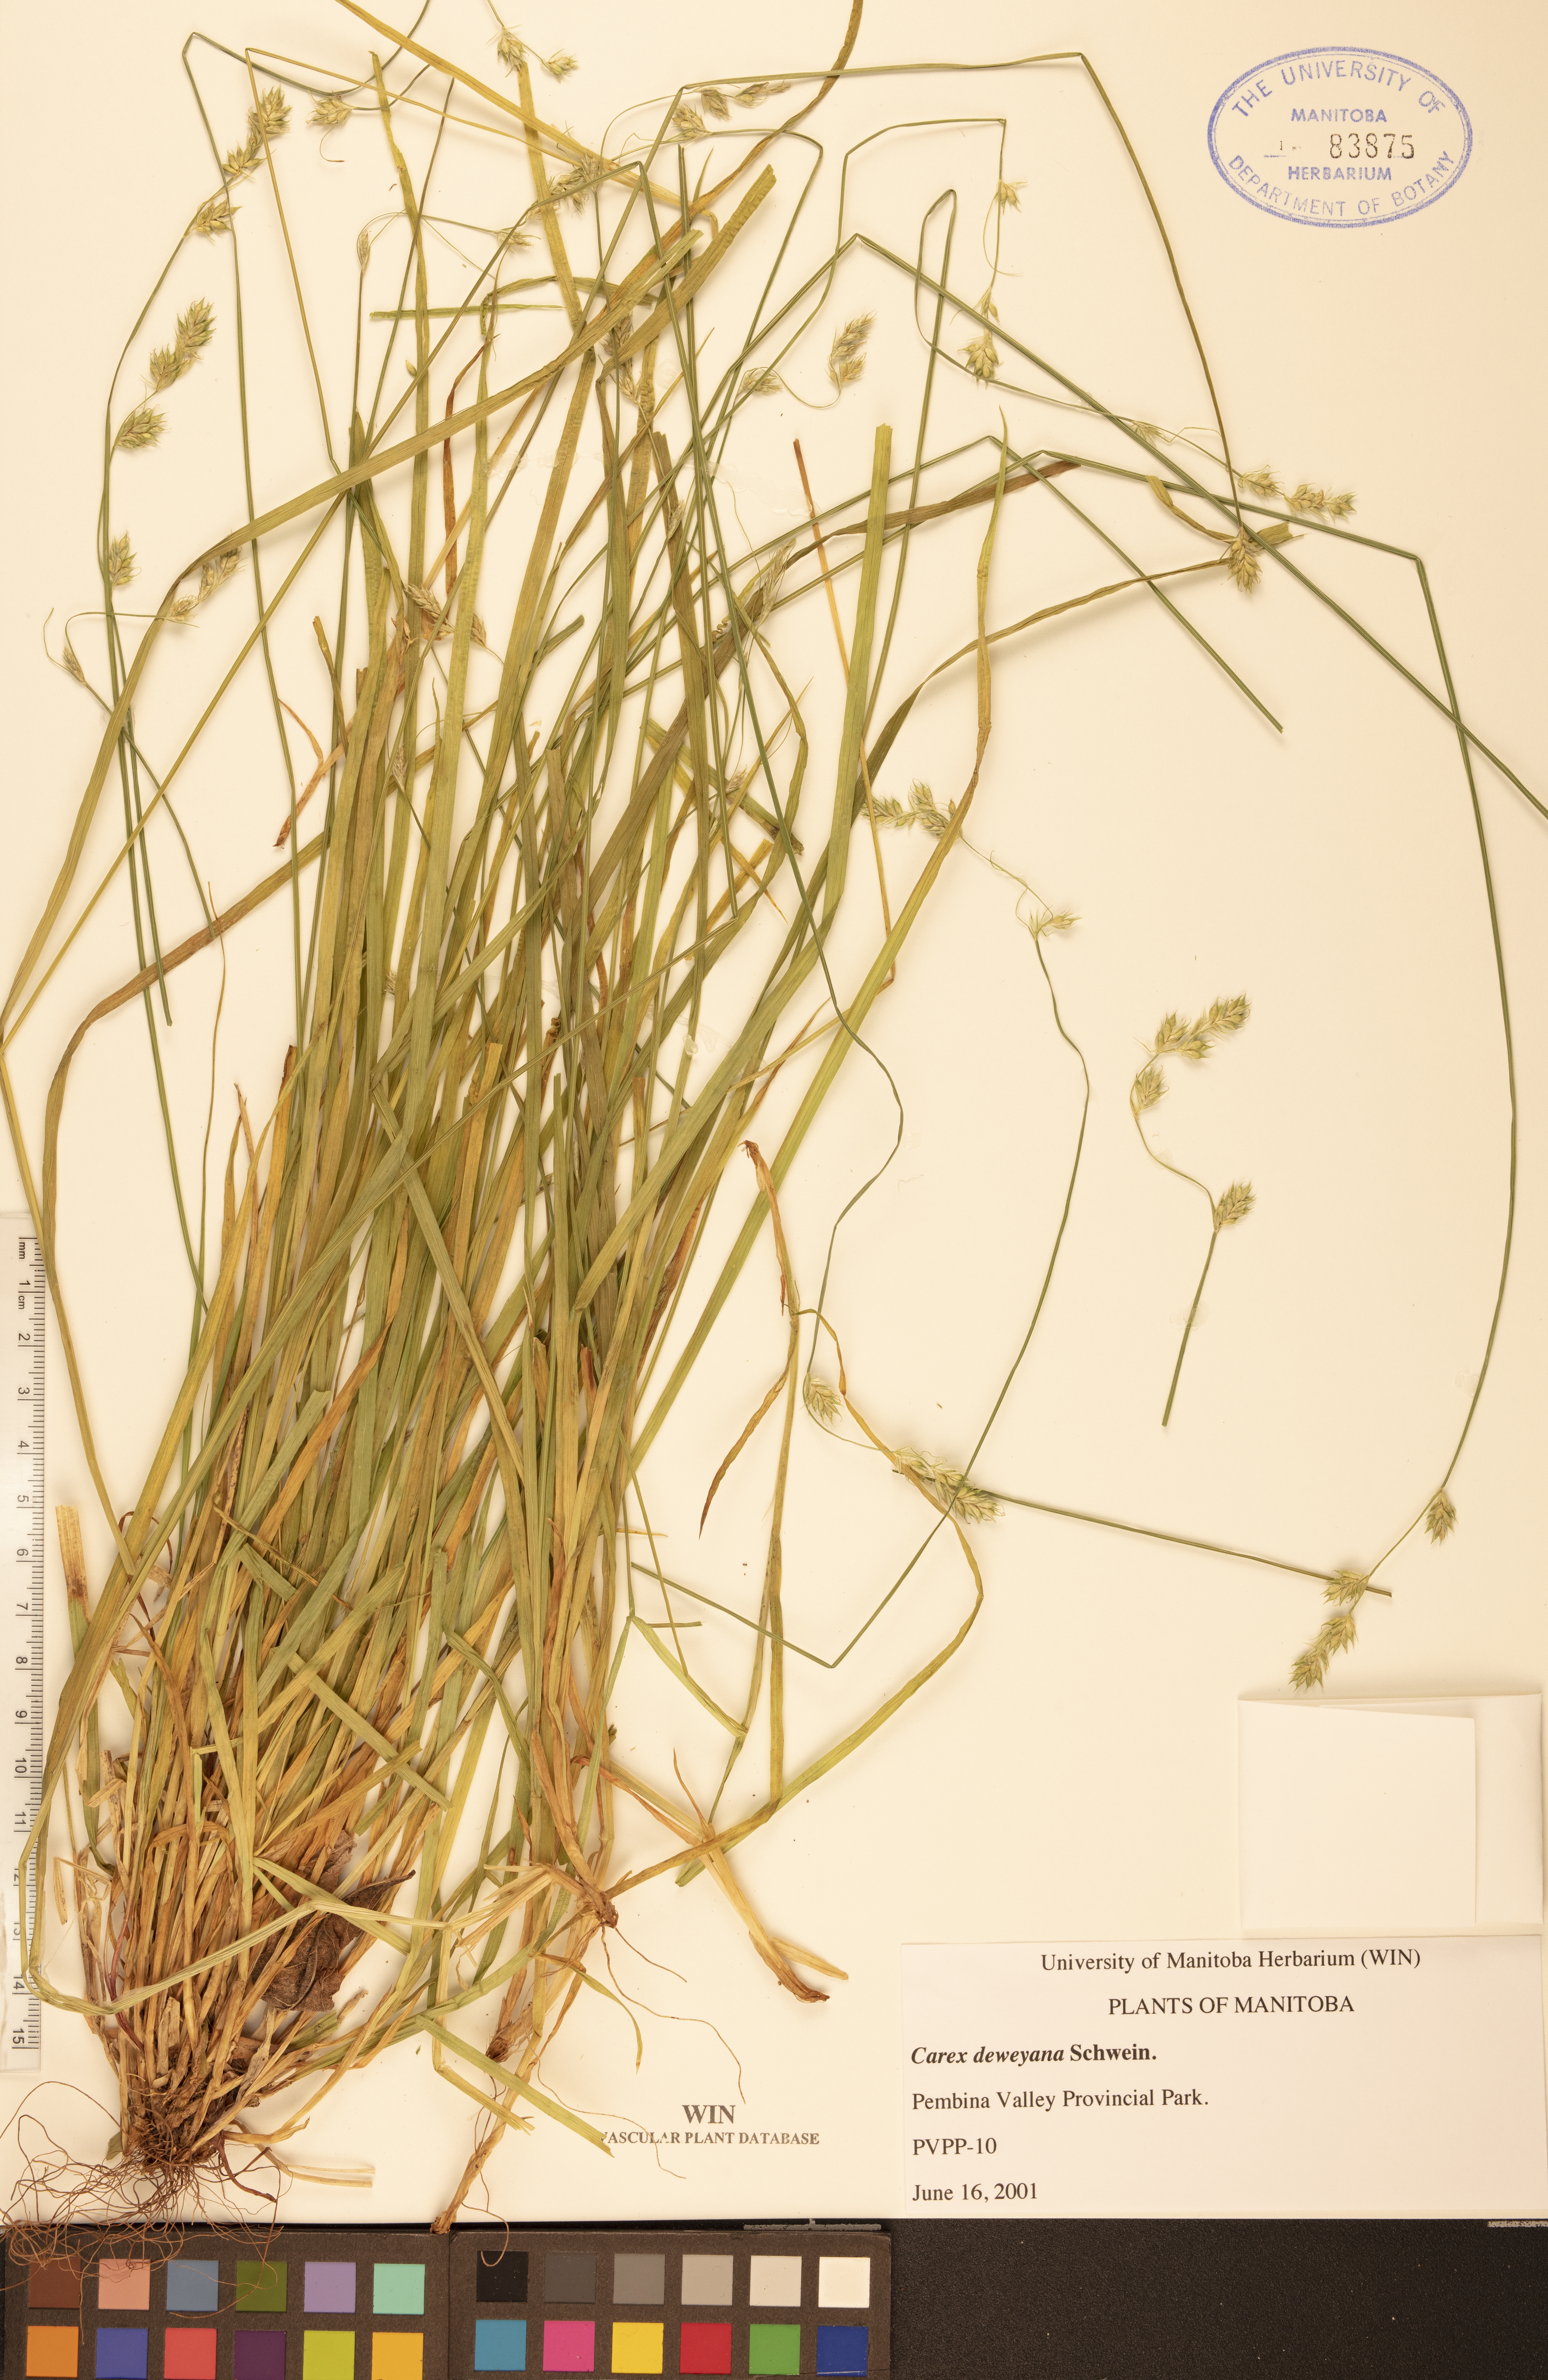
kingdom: Plantae
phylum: Tracheophyta
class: Liliopsida
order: Poales
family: Cyperaceae
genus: Carex
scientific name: Carex deweyana
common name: Dewey's sedge
